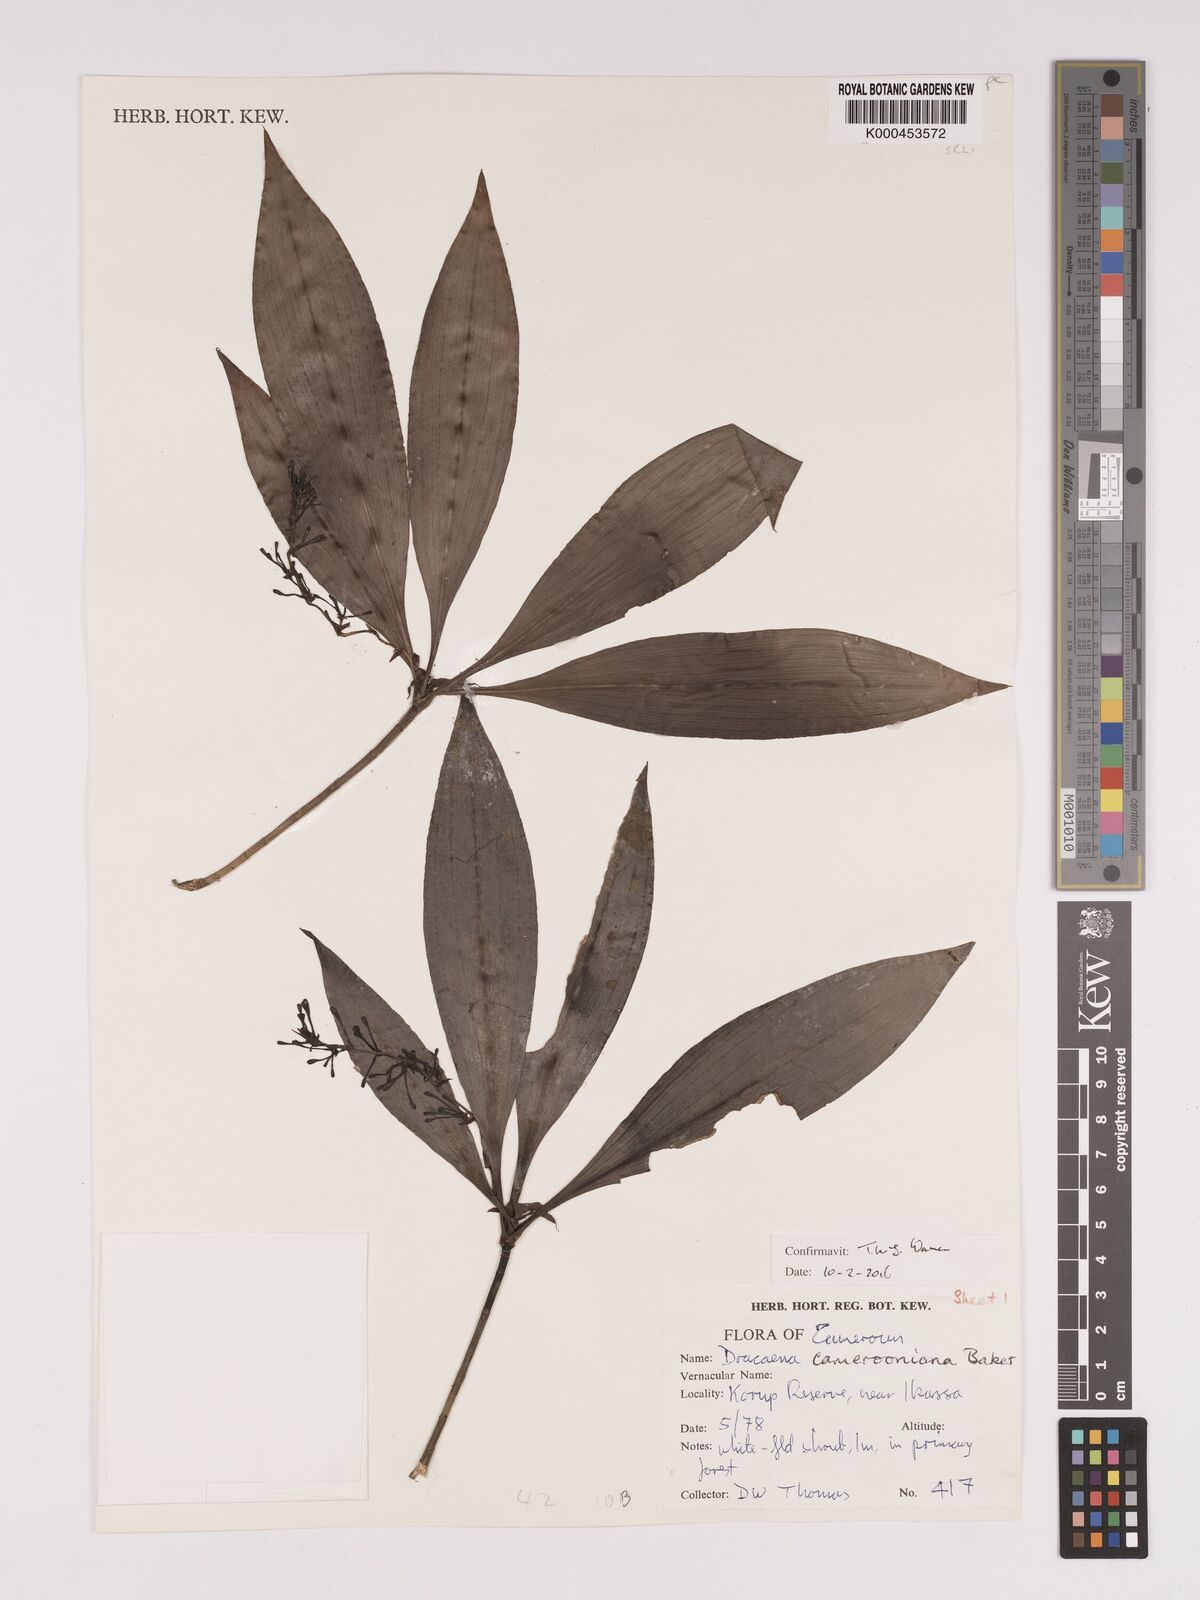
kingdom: Plantae
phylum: Tracheophyta
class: Liliopsida
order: Asparagales
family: Asparagaceae
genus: Dracaena
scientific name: Dracaena camerooniana
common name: Dragon tree
